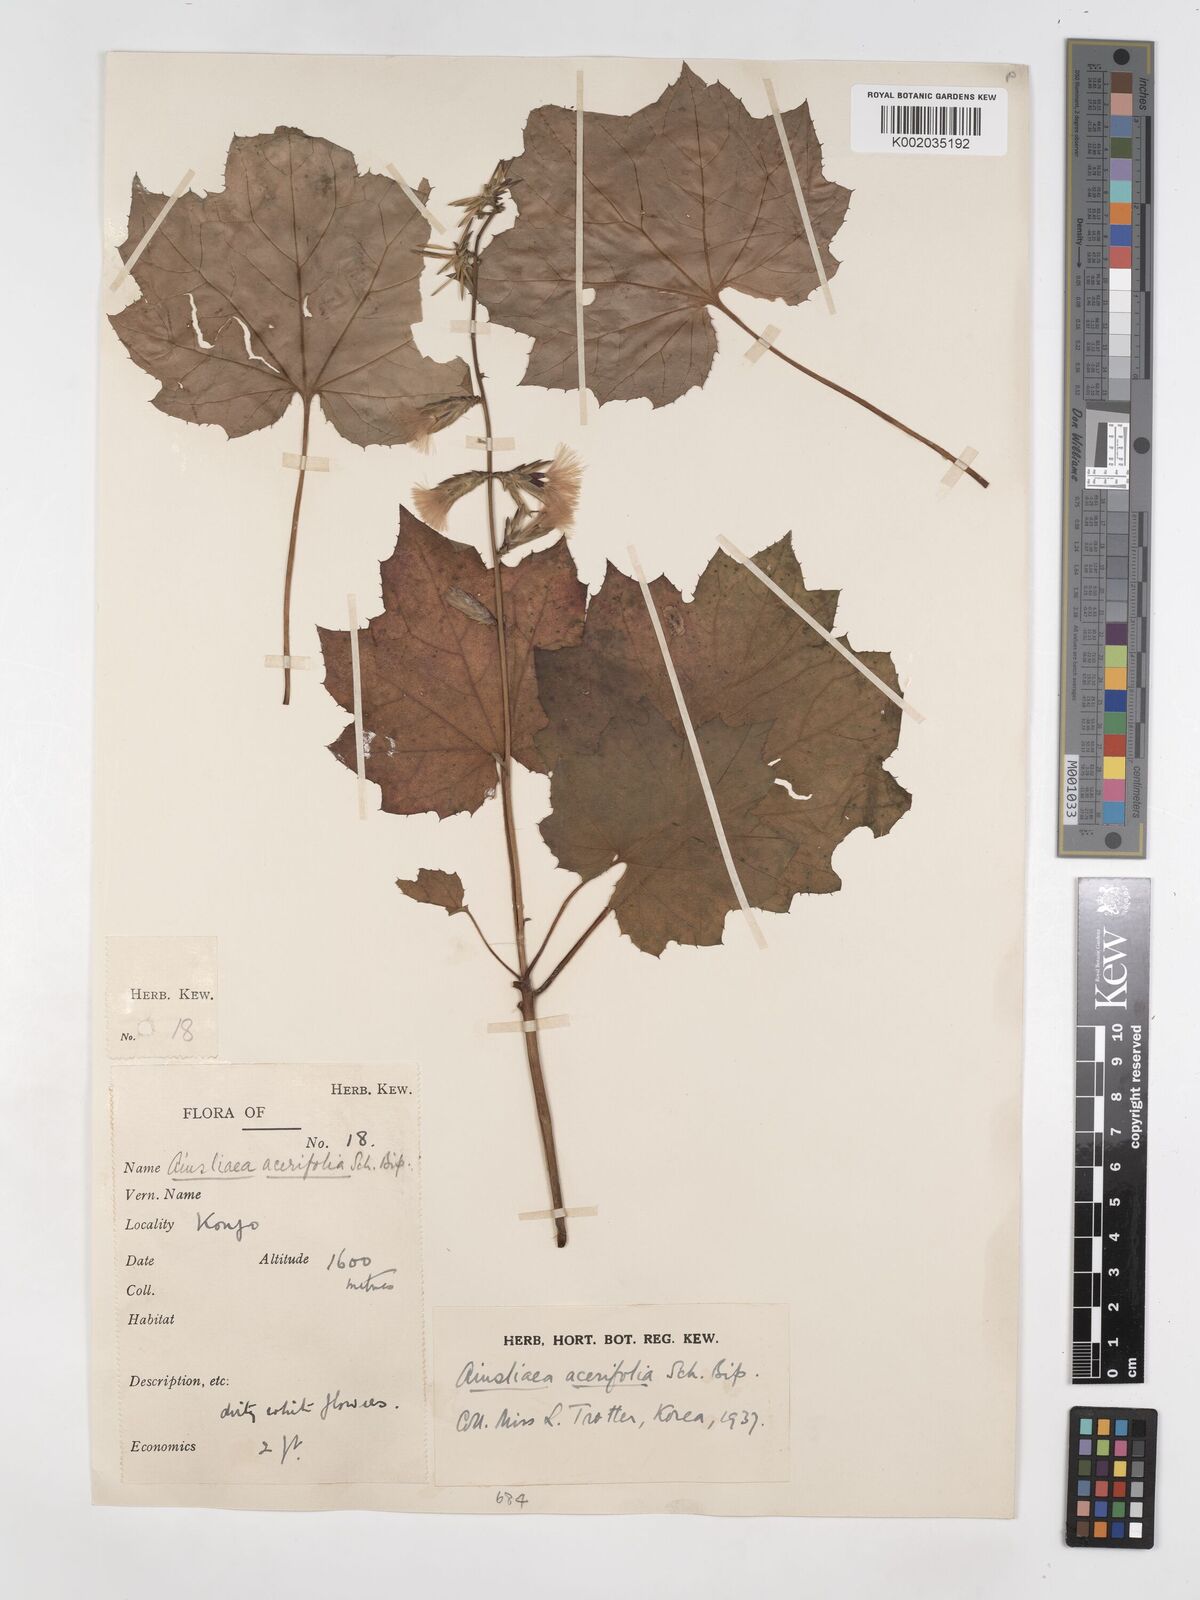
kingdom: Plantae
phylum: Tracheophyta
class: Magnoliopsida
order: Asterales
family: Asteraceae
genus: Ainsliaea
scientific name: Ainsliaea acerifolia
